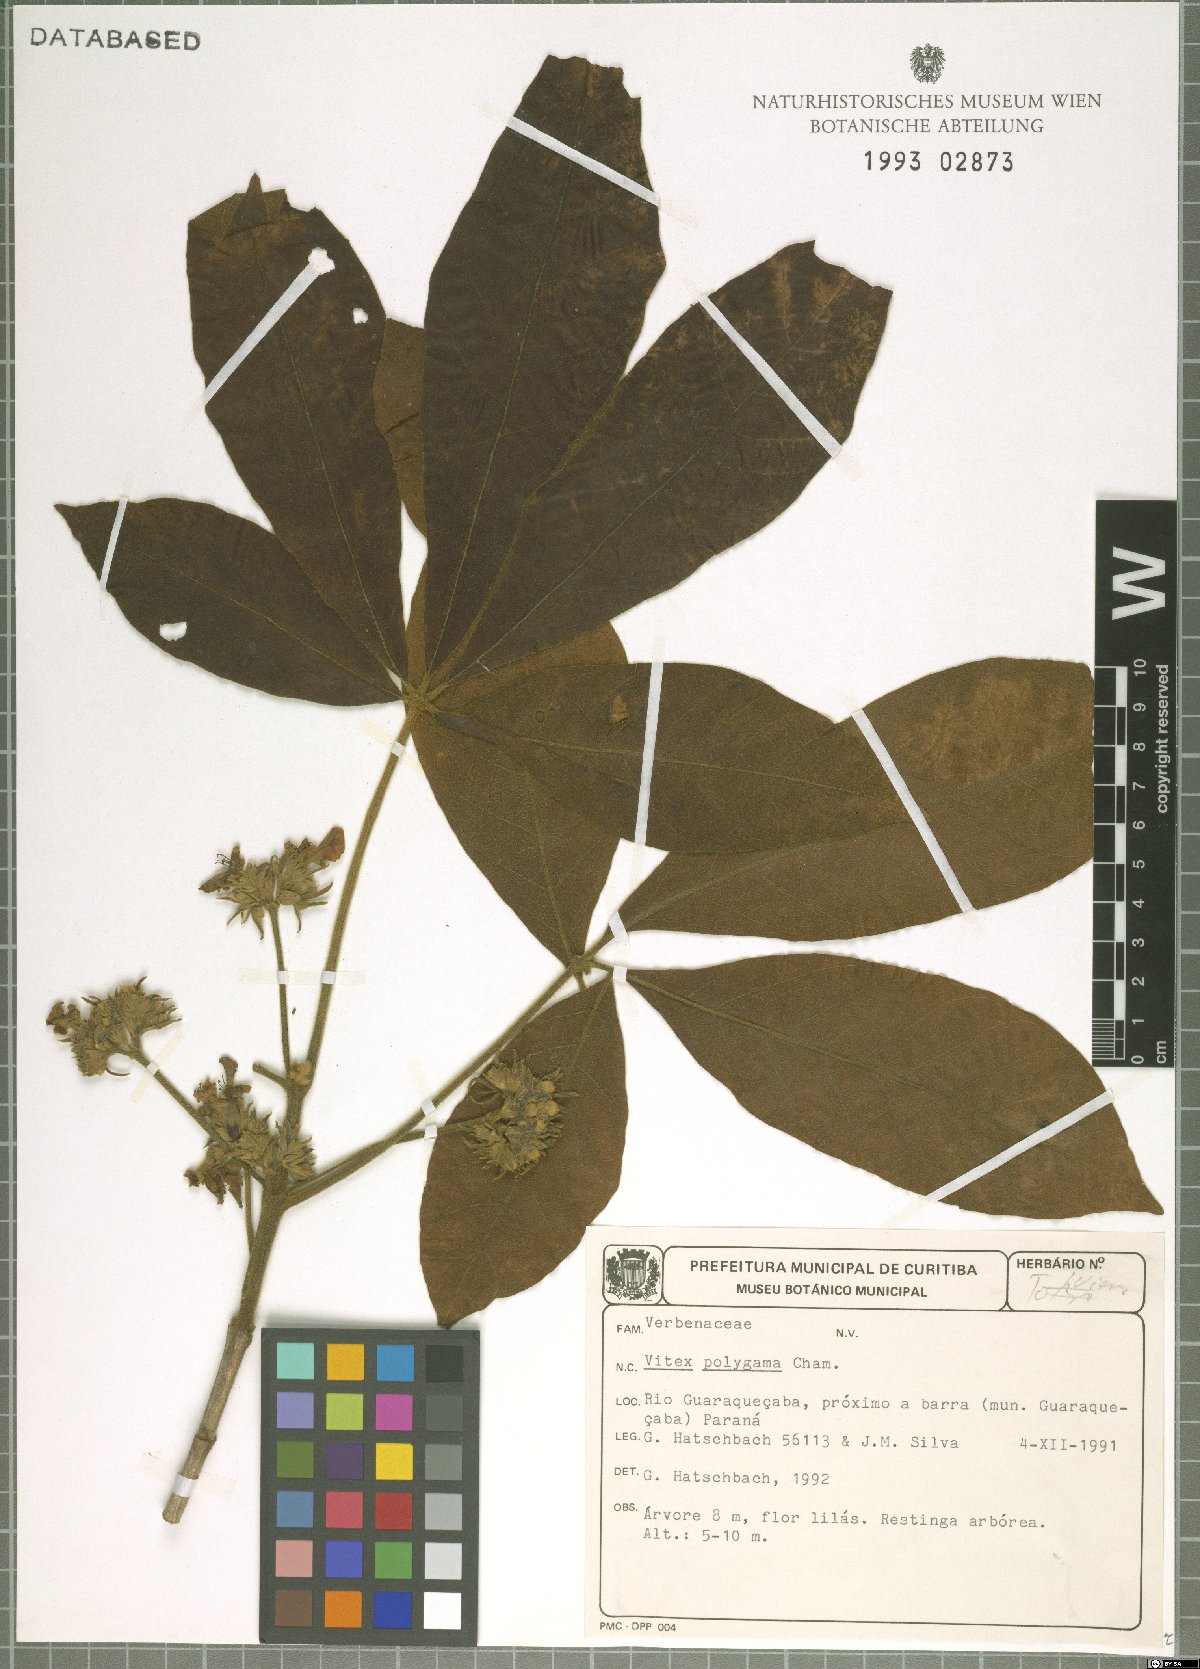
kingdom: Plantae
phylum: Tracheophyta
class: Magnoliopsida
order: Lamiales
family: Lamiaceae
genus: Vitex
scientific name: Vitex polygama
